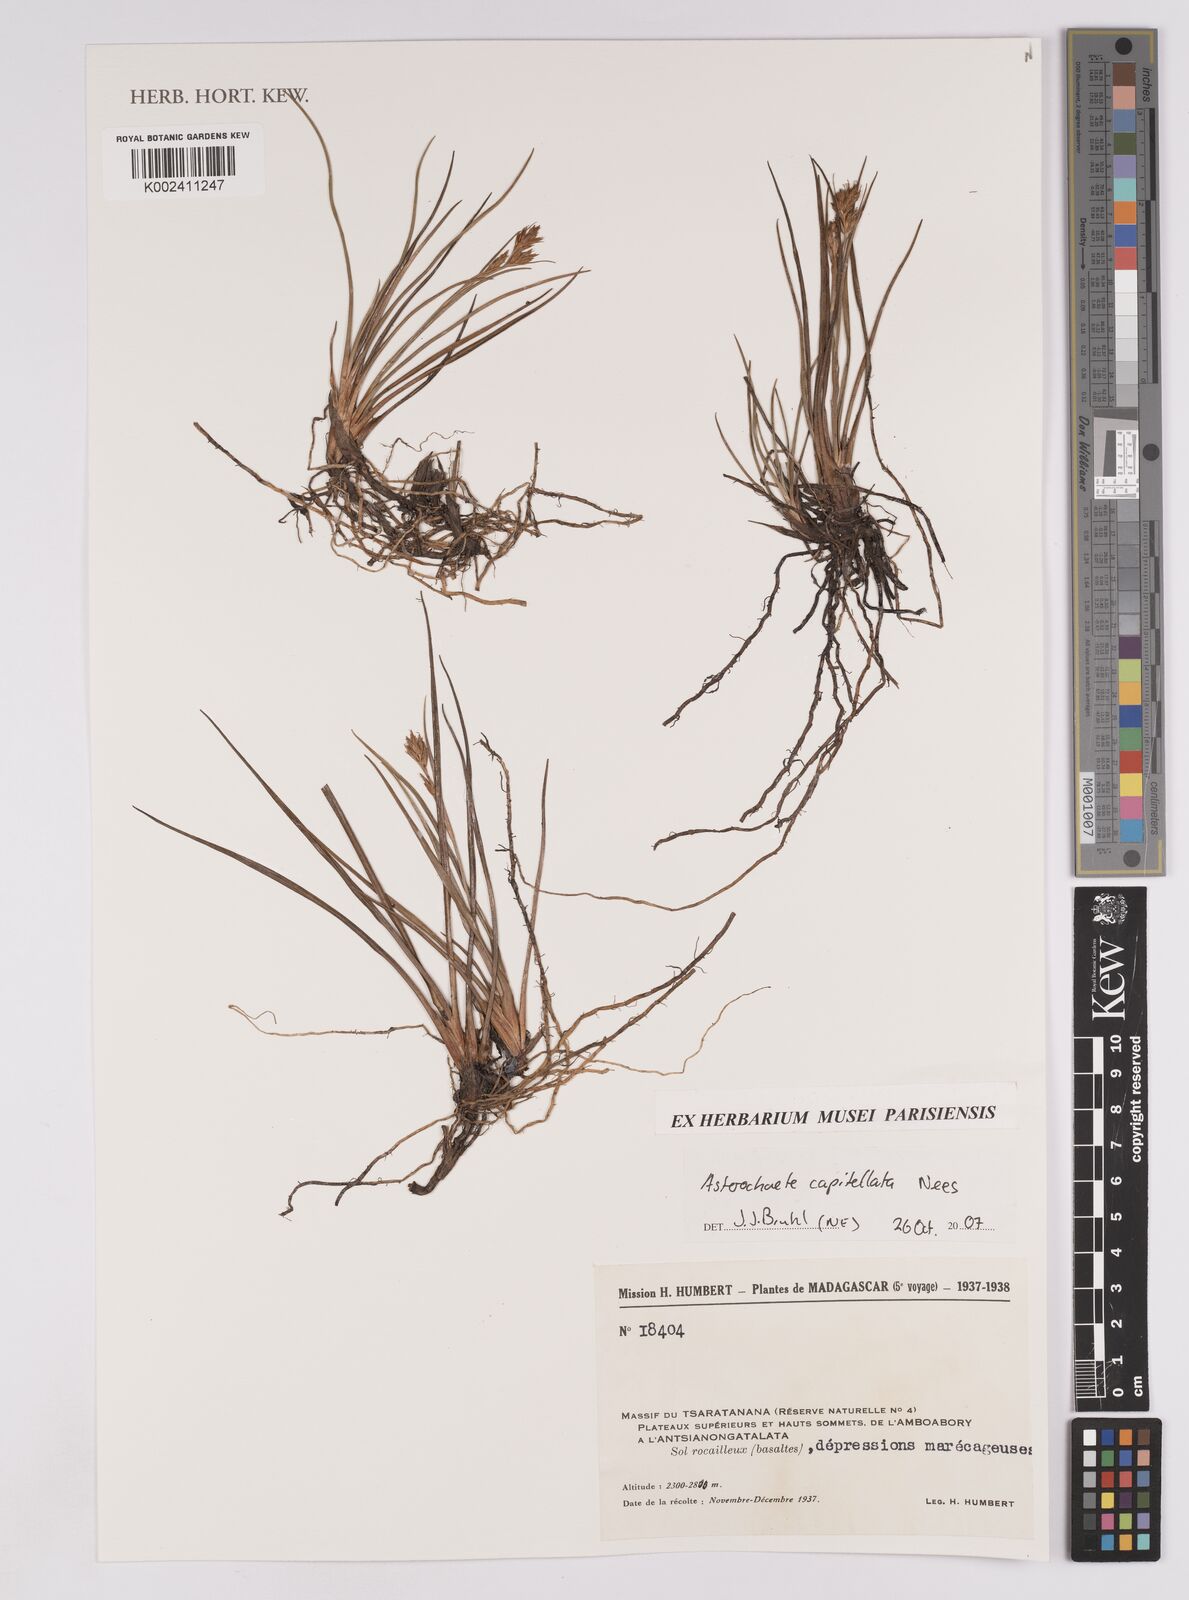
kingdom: Plantae
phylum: Tracheophyta
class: Liliopsida
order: Poales
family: Cyperaceae
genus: Carpha
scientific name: Carpha
